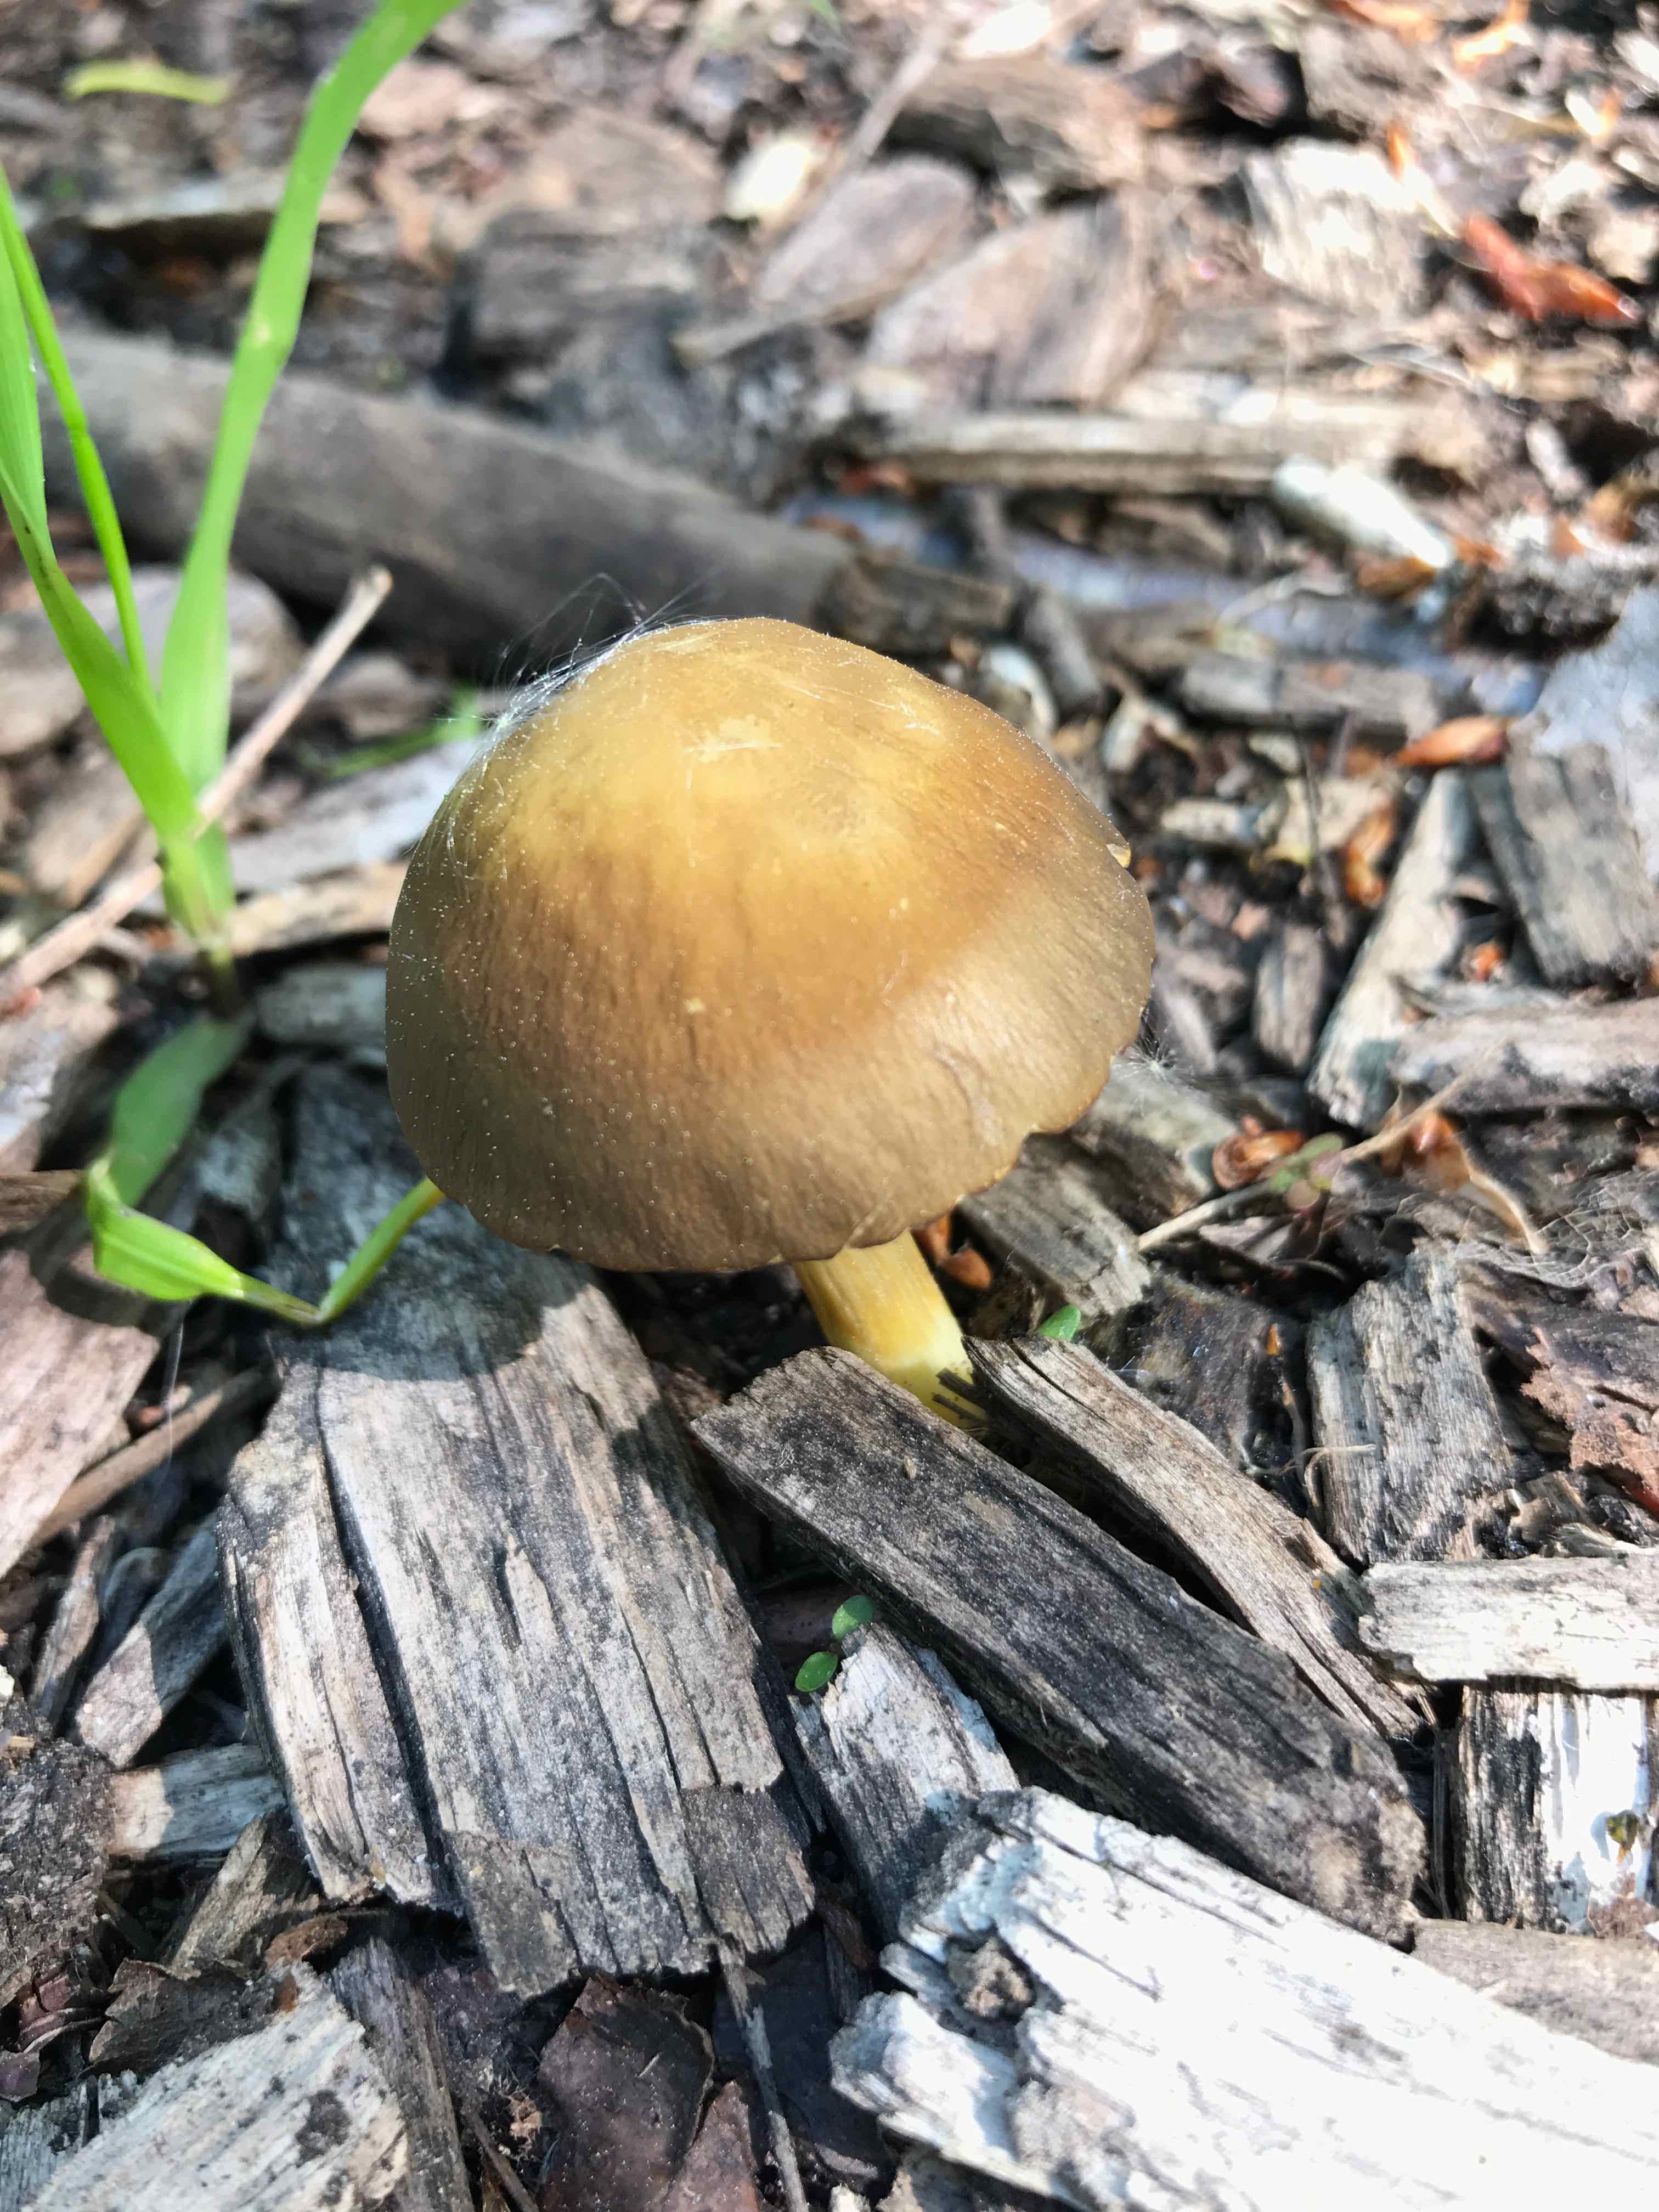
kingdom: Fungi
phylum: Basidiomycota
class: Agaricomycetes
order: Agaricales
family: Pluteaceae
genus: Pluteus
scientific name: Pluteus romellii
